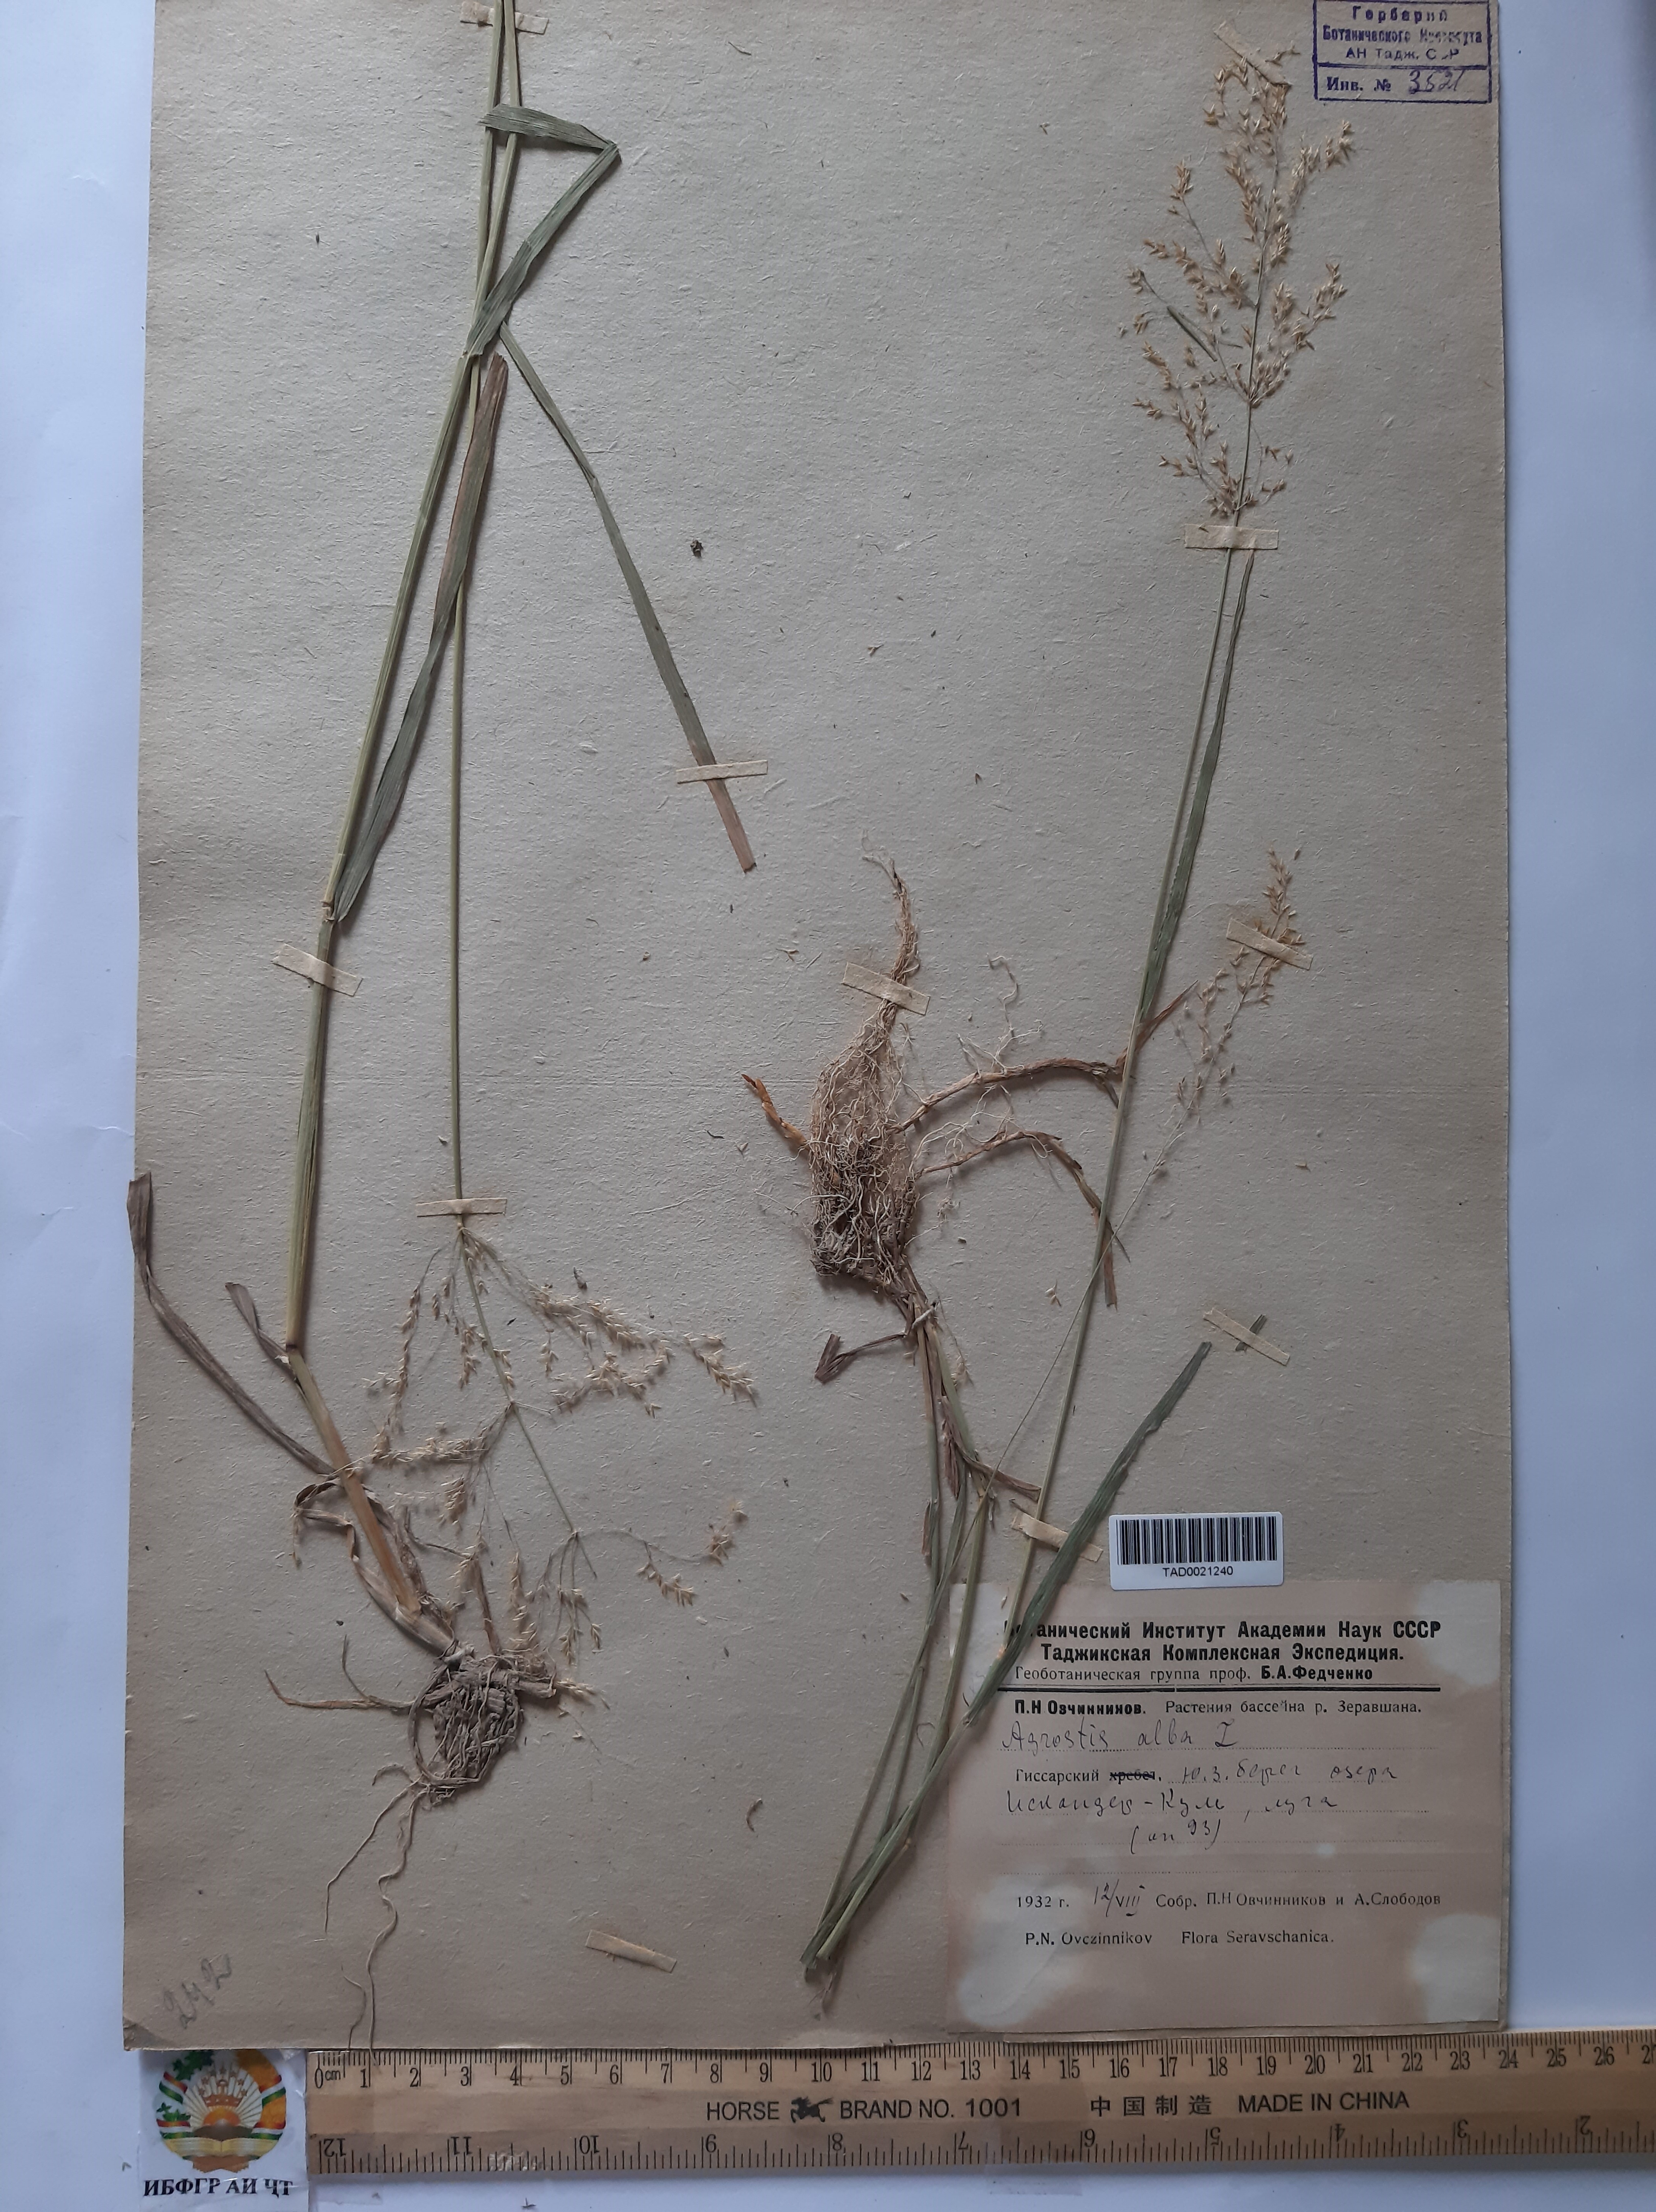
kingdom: Plantae
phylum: Tracheophyta
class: Liliopsida
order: Poales
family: Poaceae
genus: Poa
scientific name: Poa nemoralis
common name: Wood bluegrass
